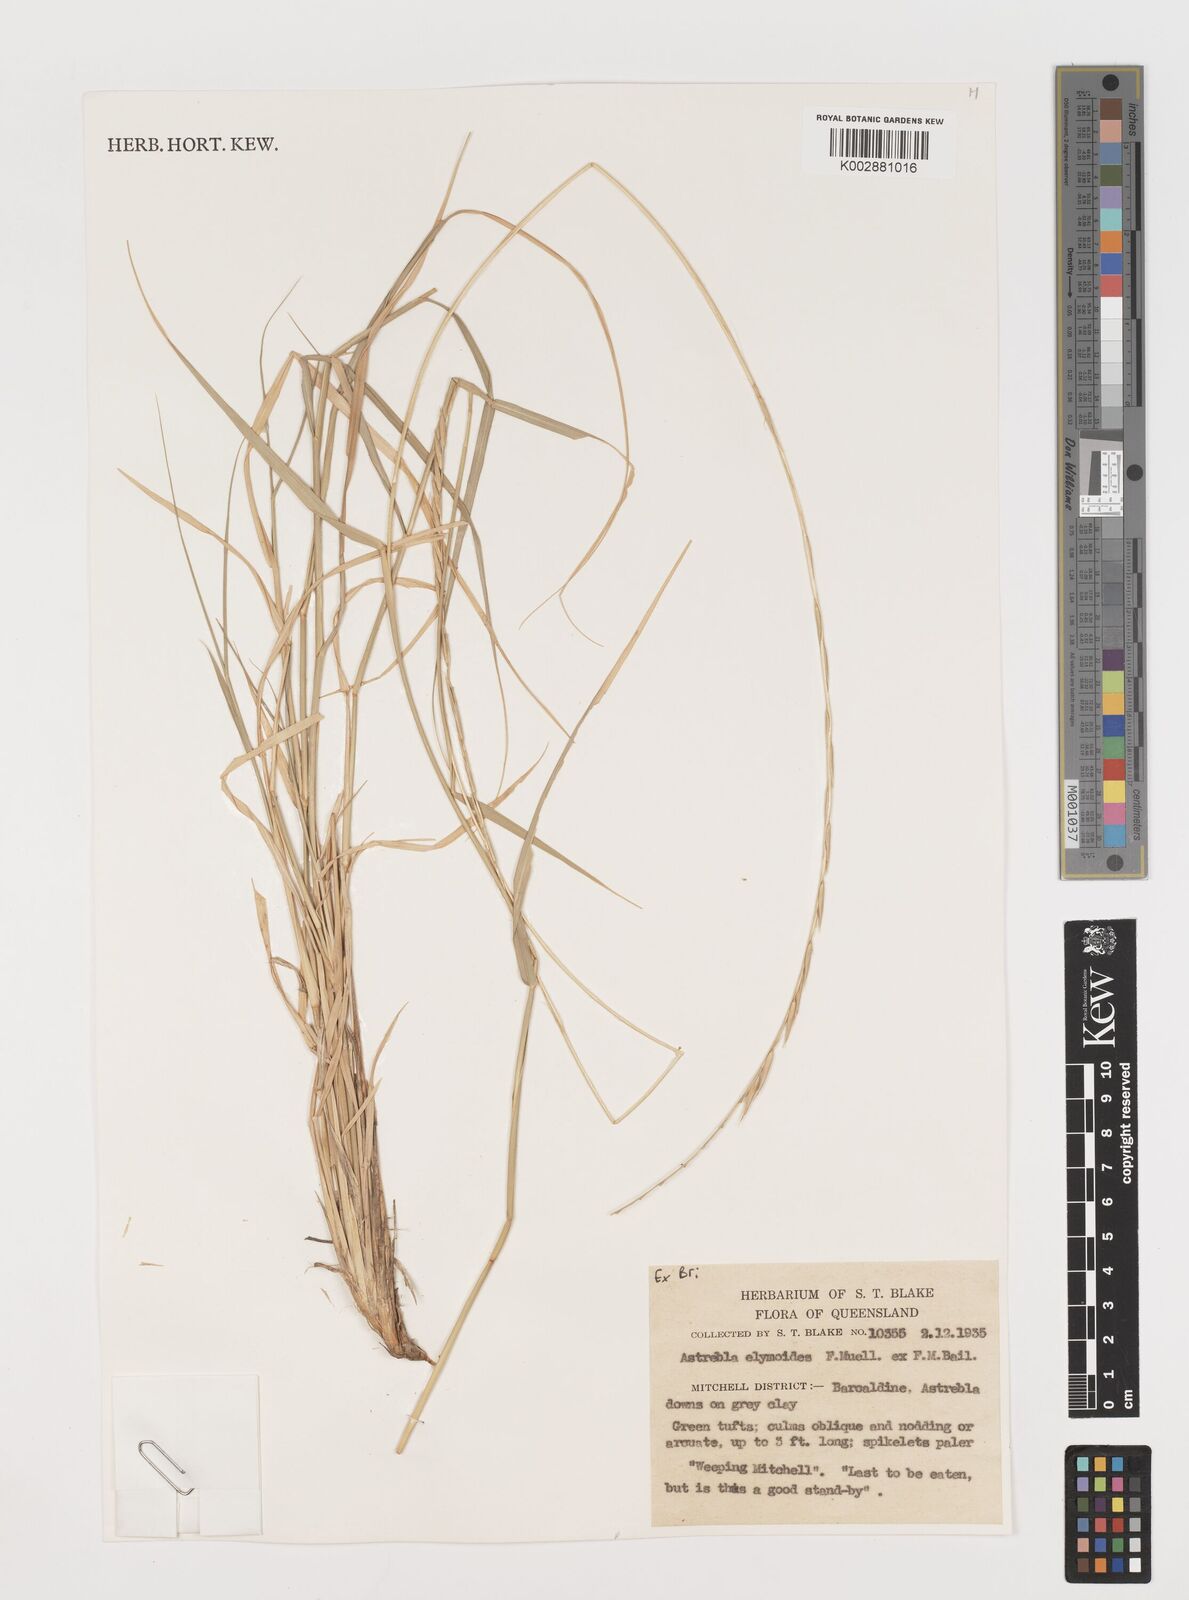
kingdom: Plantae
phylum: Tracheophyta
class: Liliopsida
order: Poales
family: Poaceae
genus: Astrebla
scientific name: Astrebla elymoides
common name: Hoop mitchell grass
